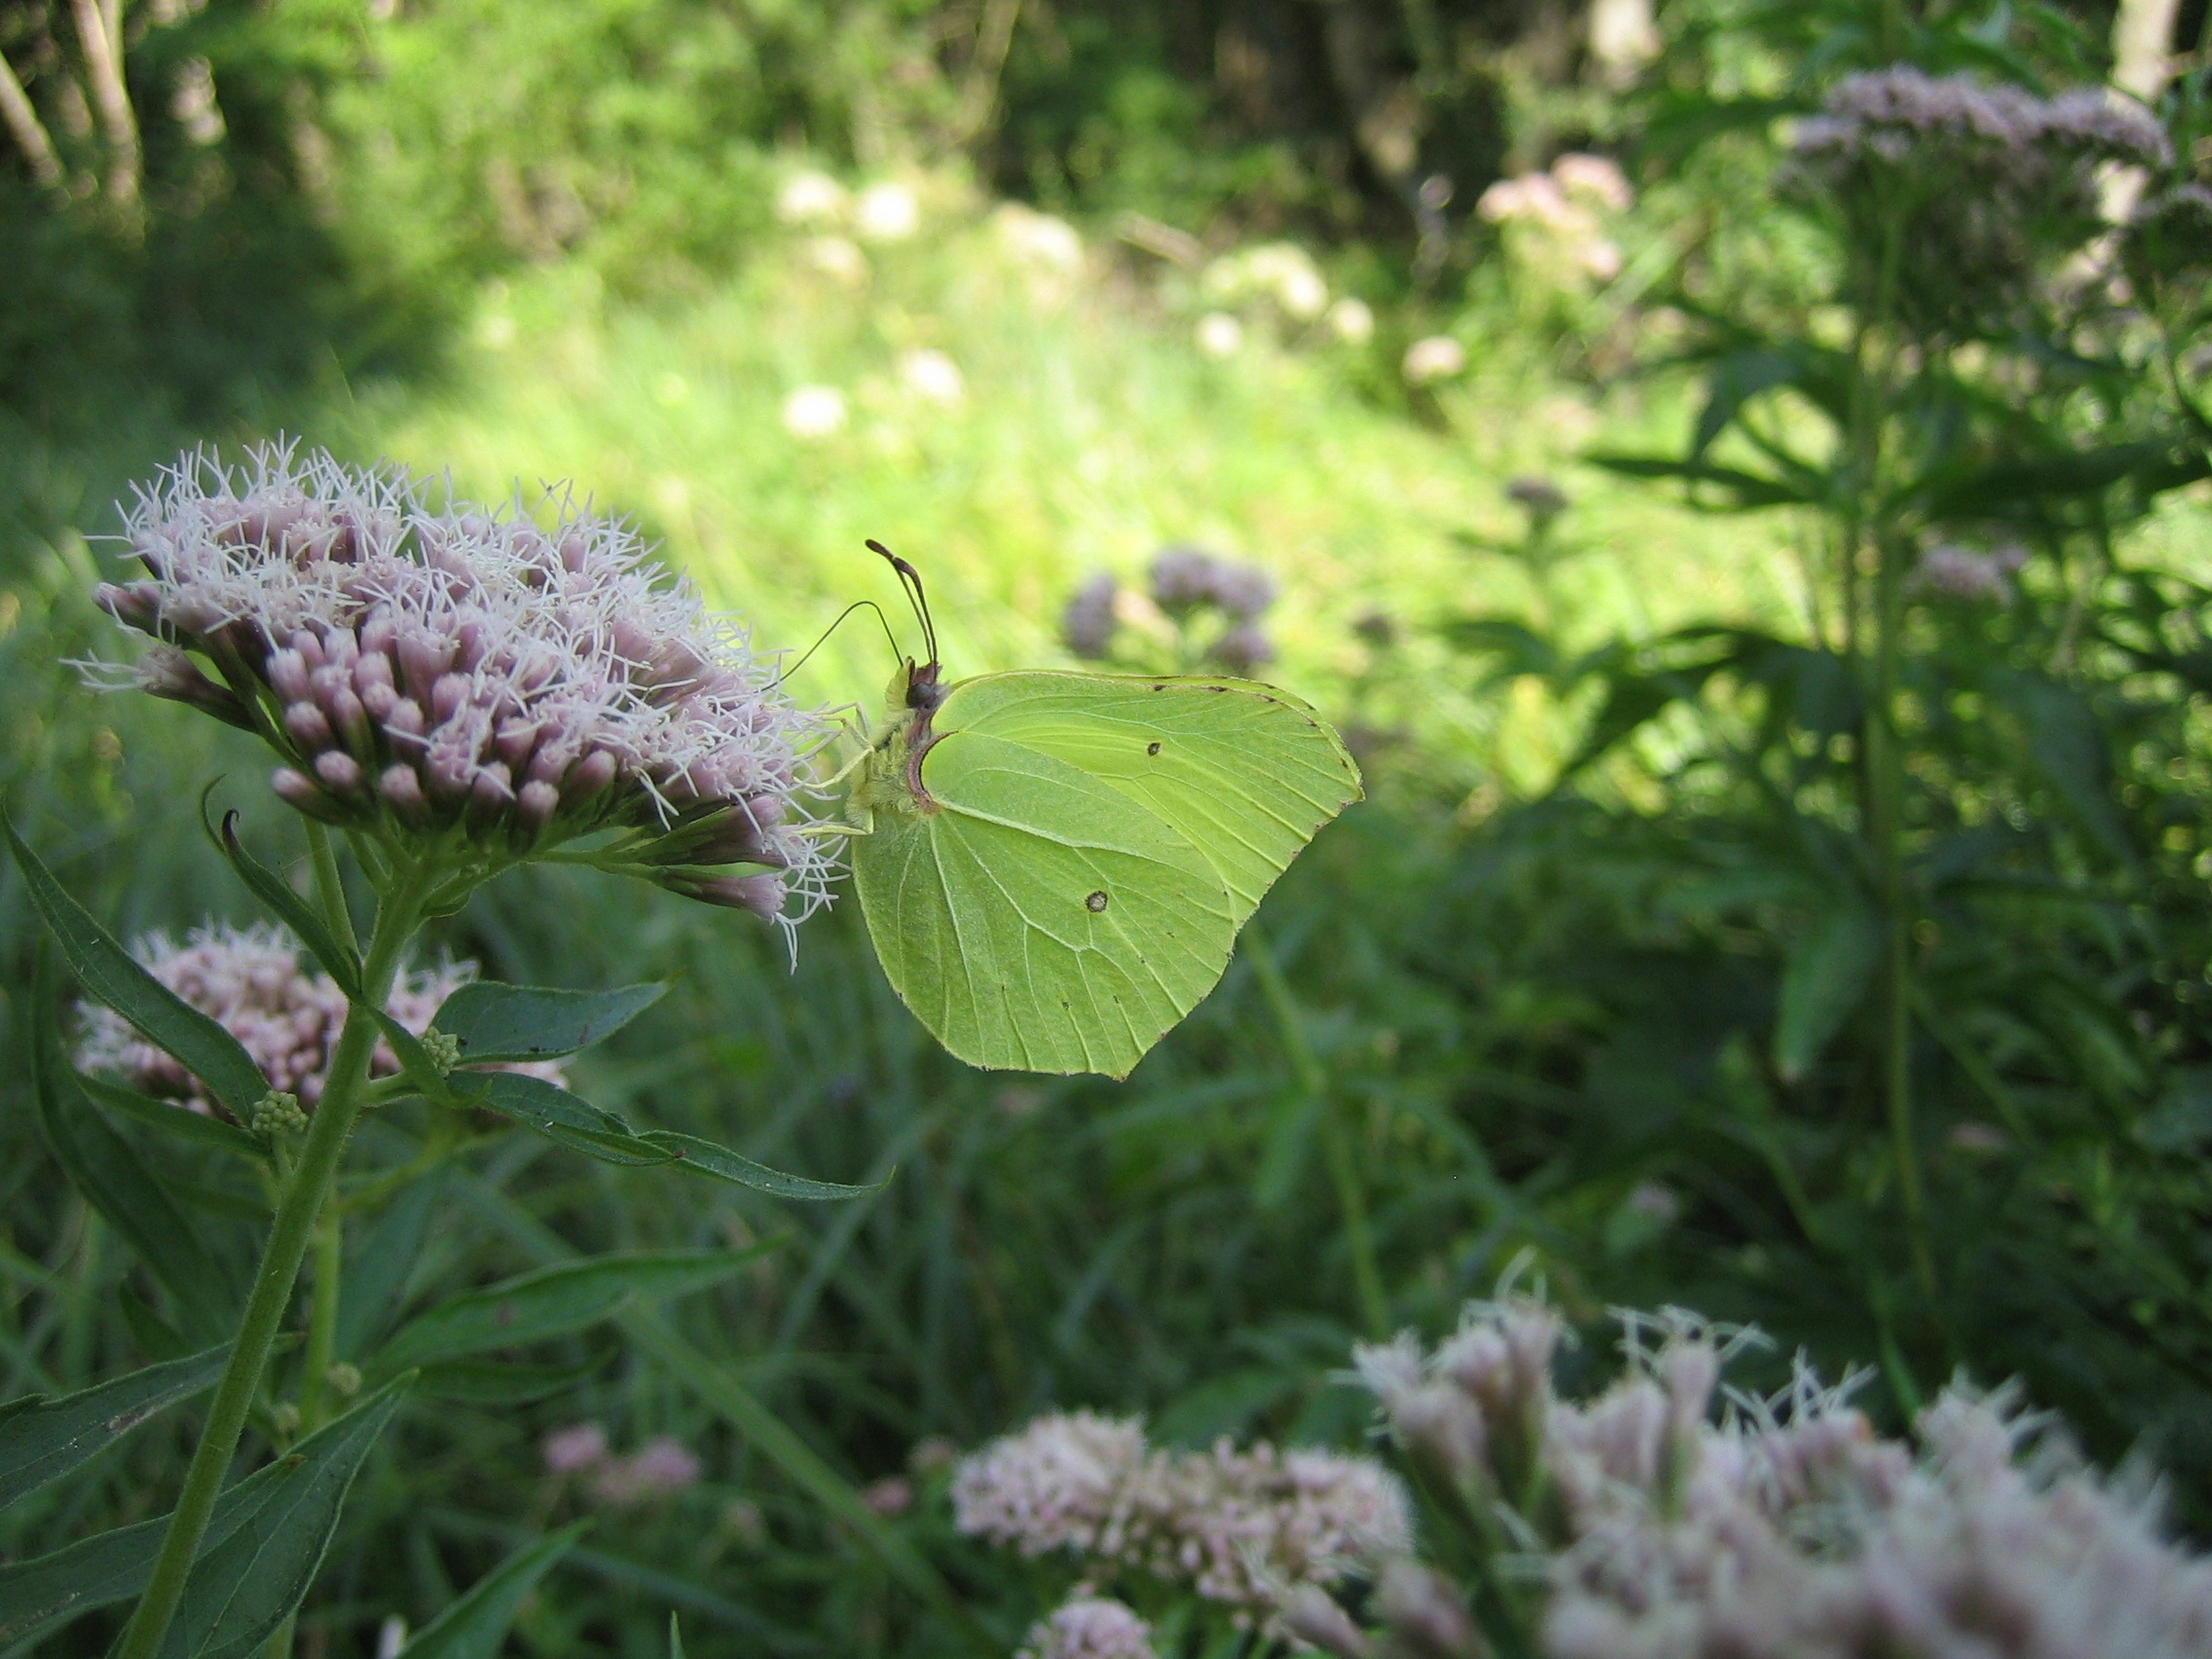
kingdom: Animalia
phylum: Arthropoda
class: Insecta
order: Lepidoptera
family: Pieridae
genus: Gonepteryx
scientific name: Gonepteryx rhamni
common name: Citronsommerfugl
